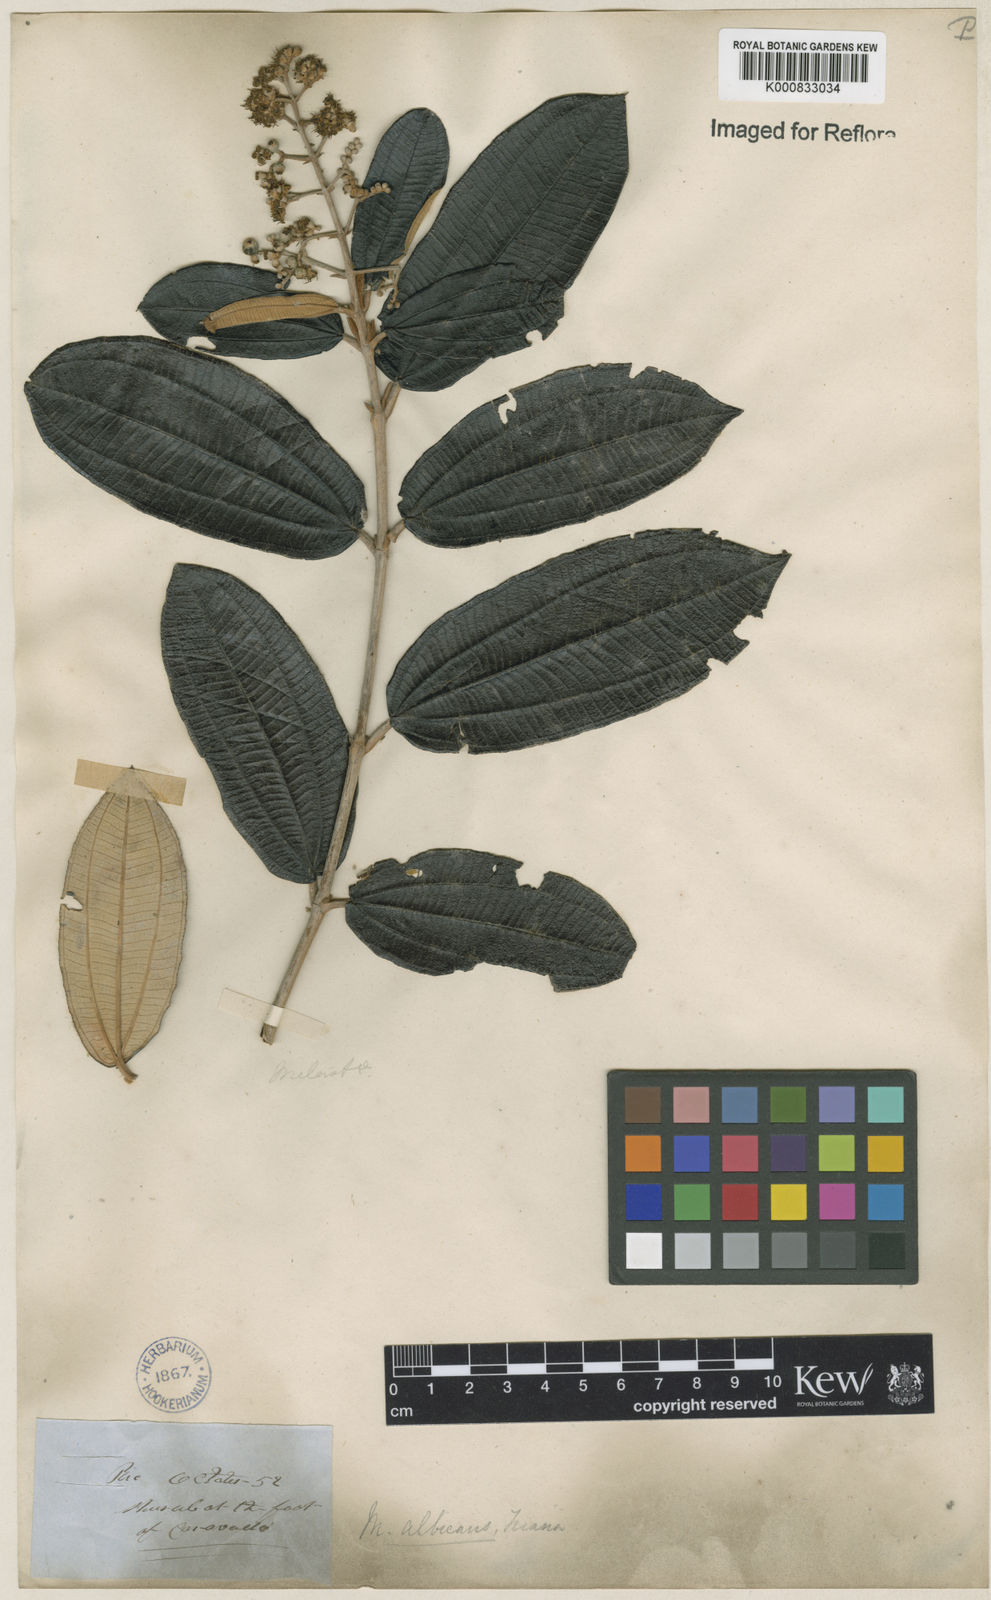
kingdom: Plantae
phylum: Tracheophyta
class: Magnoliopsida
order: Myrtales
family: Melastomataceae
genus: Miconia
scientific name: Miconia albicans
